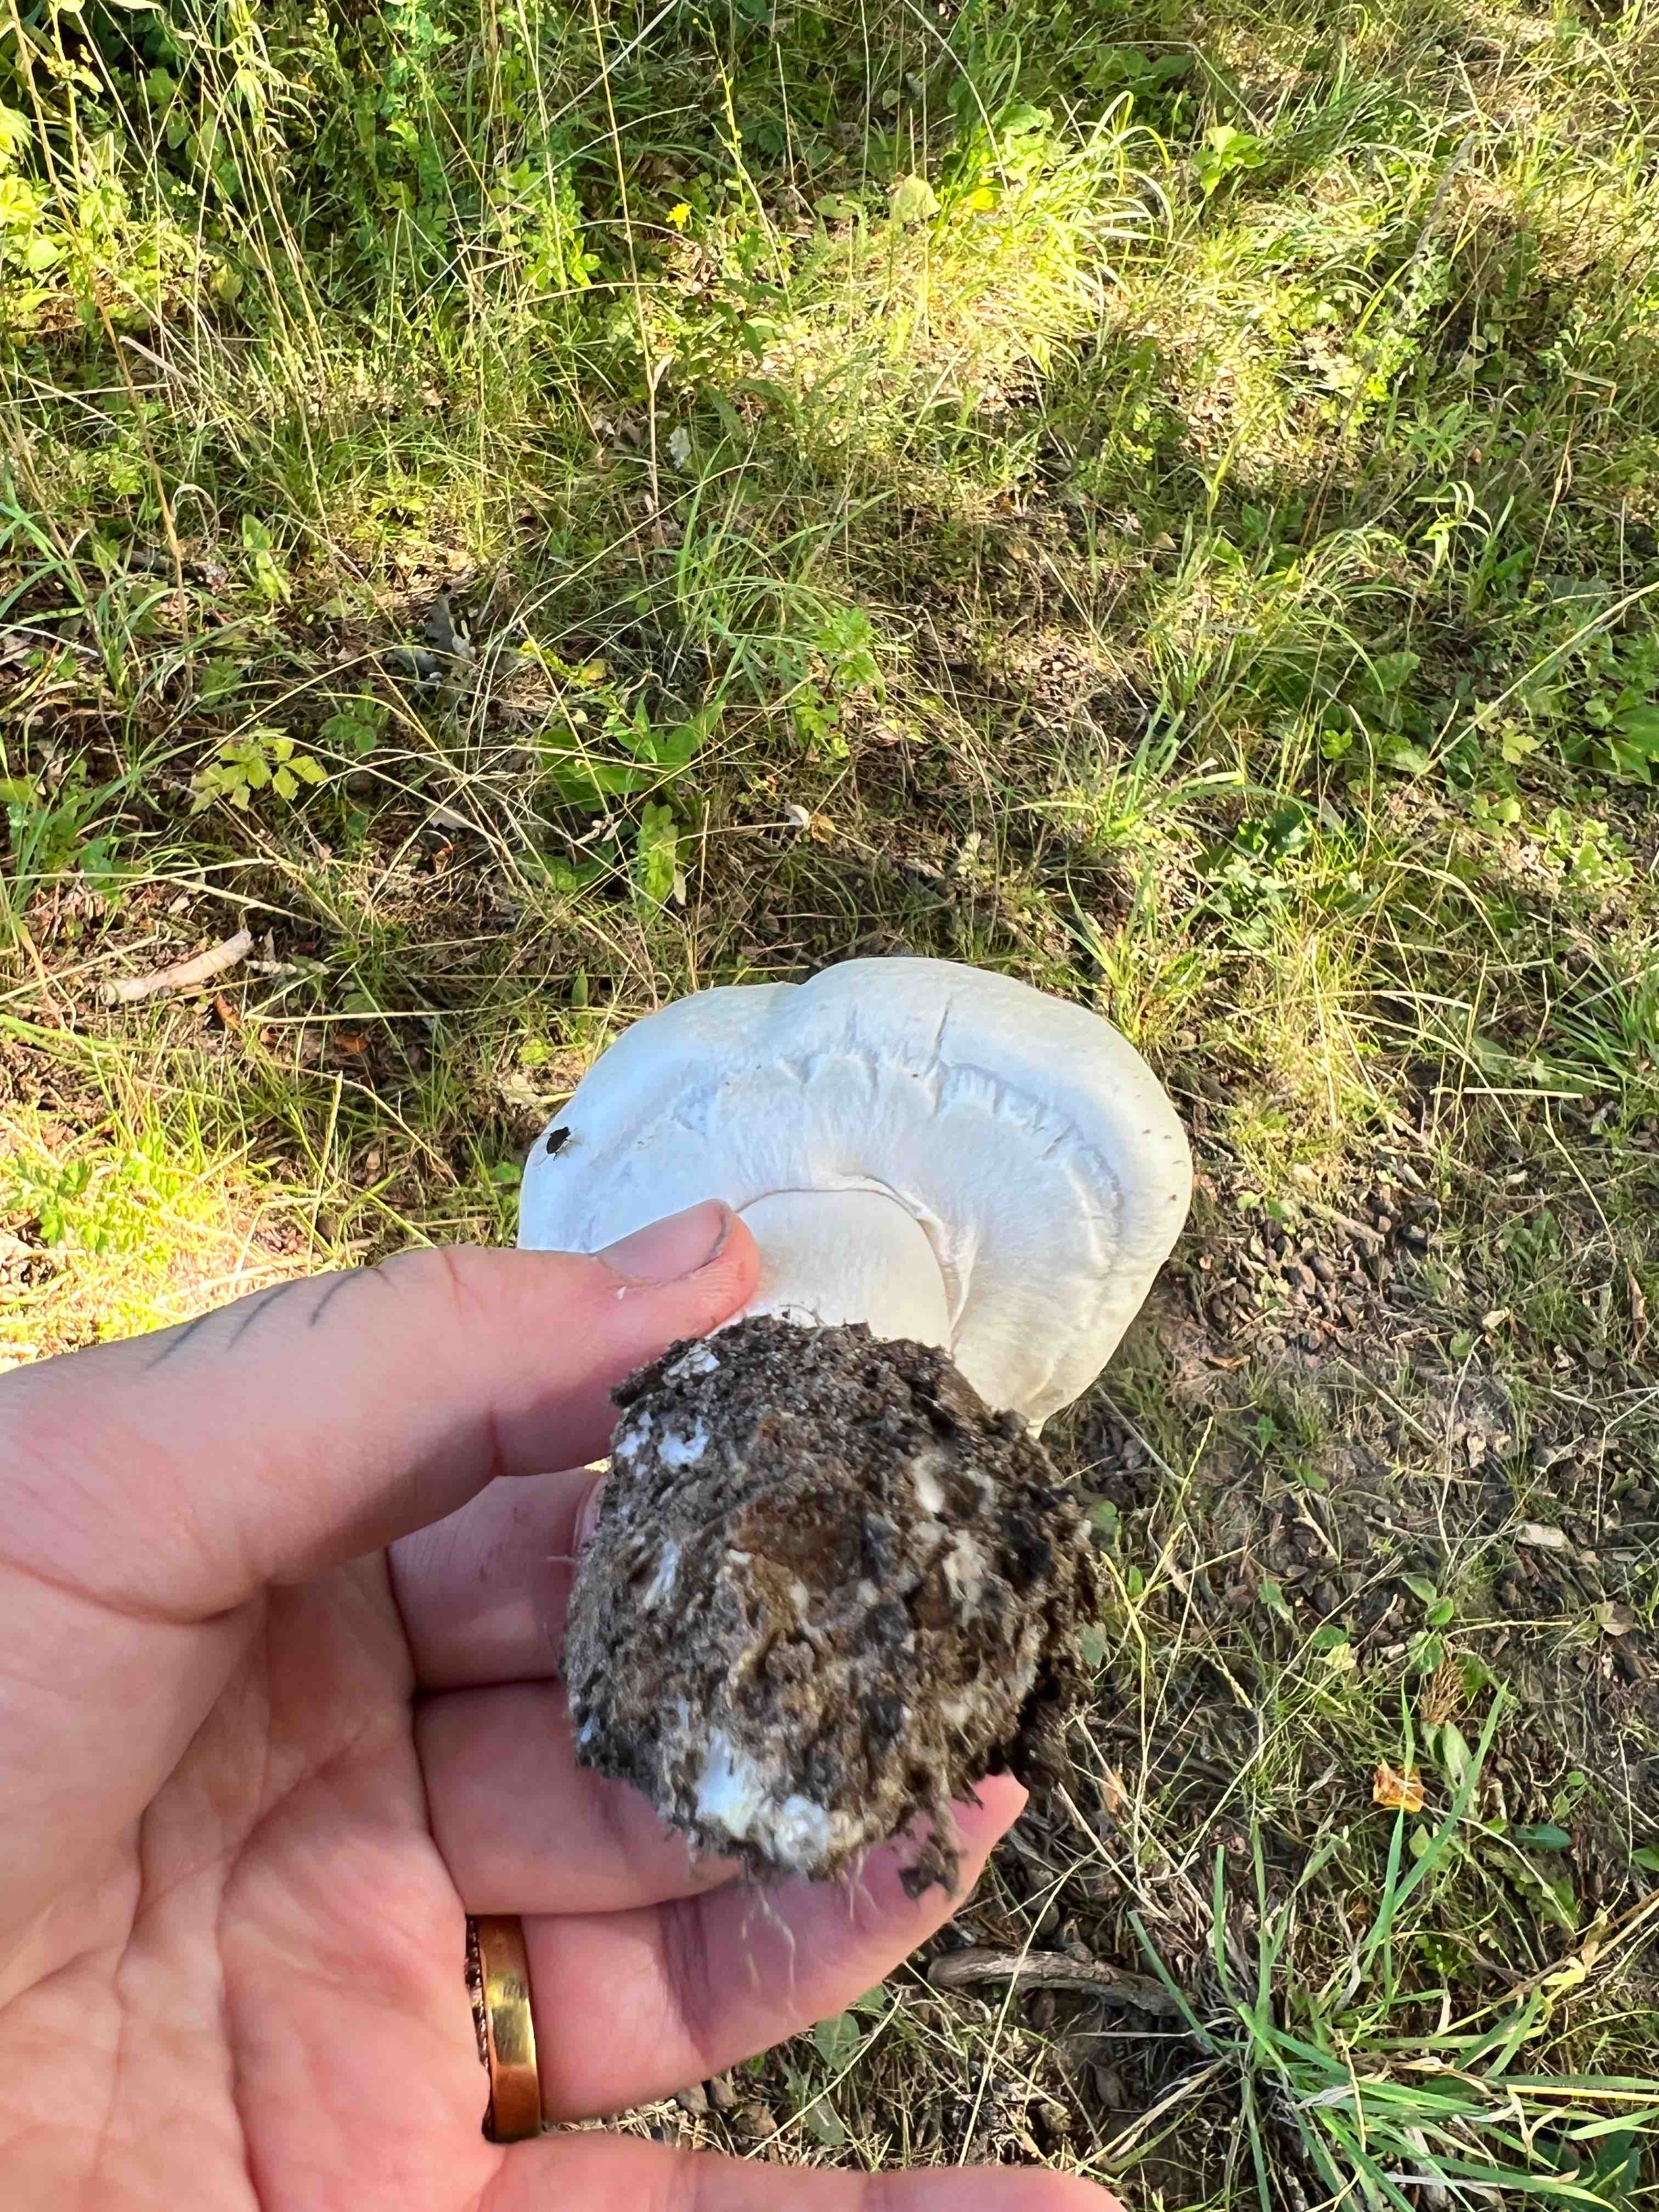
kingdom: Fungi
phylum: Basidiomycota
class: Agaricomycetes
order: Agaricales
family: Agaricaceae
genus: Agaricus
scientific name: Agaricus
